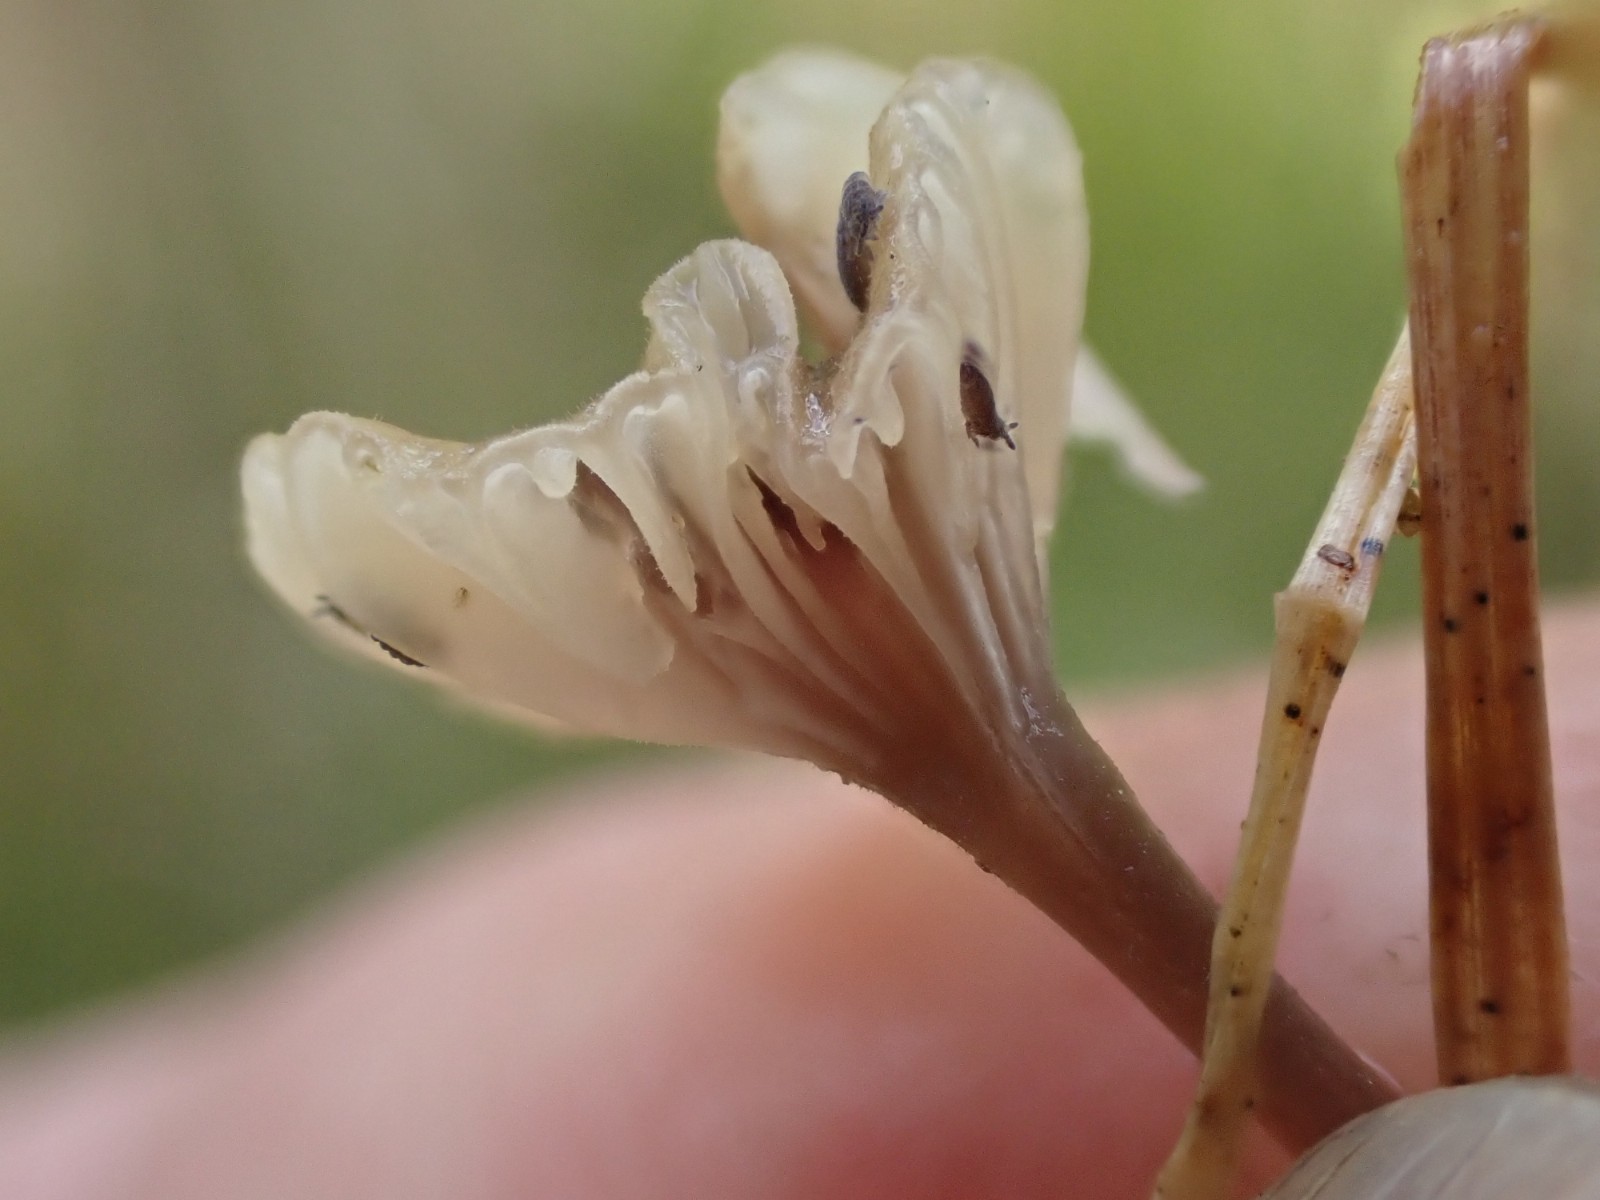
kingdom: Fungi
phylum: Basidiomycota
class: Agaricomycetes
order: Hymenochaetales
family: Rickenellaceae
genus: Rickenella
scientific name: Rickenella swartzii
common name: finstokket mosnavlehat
